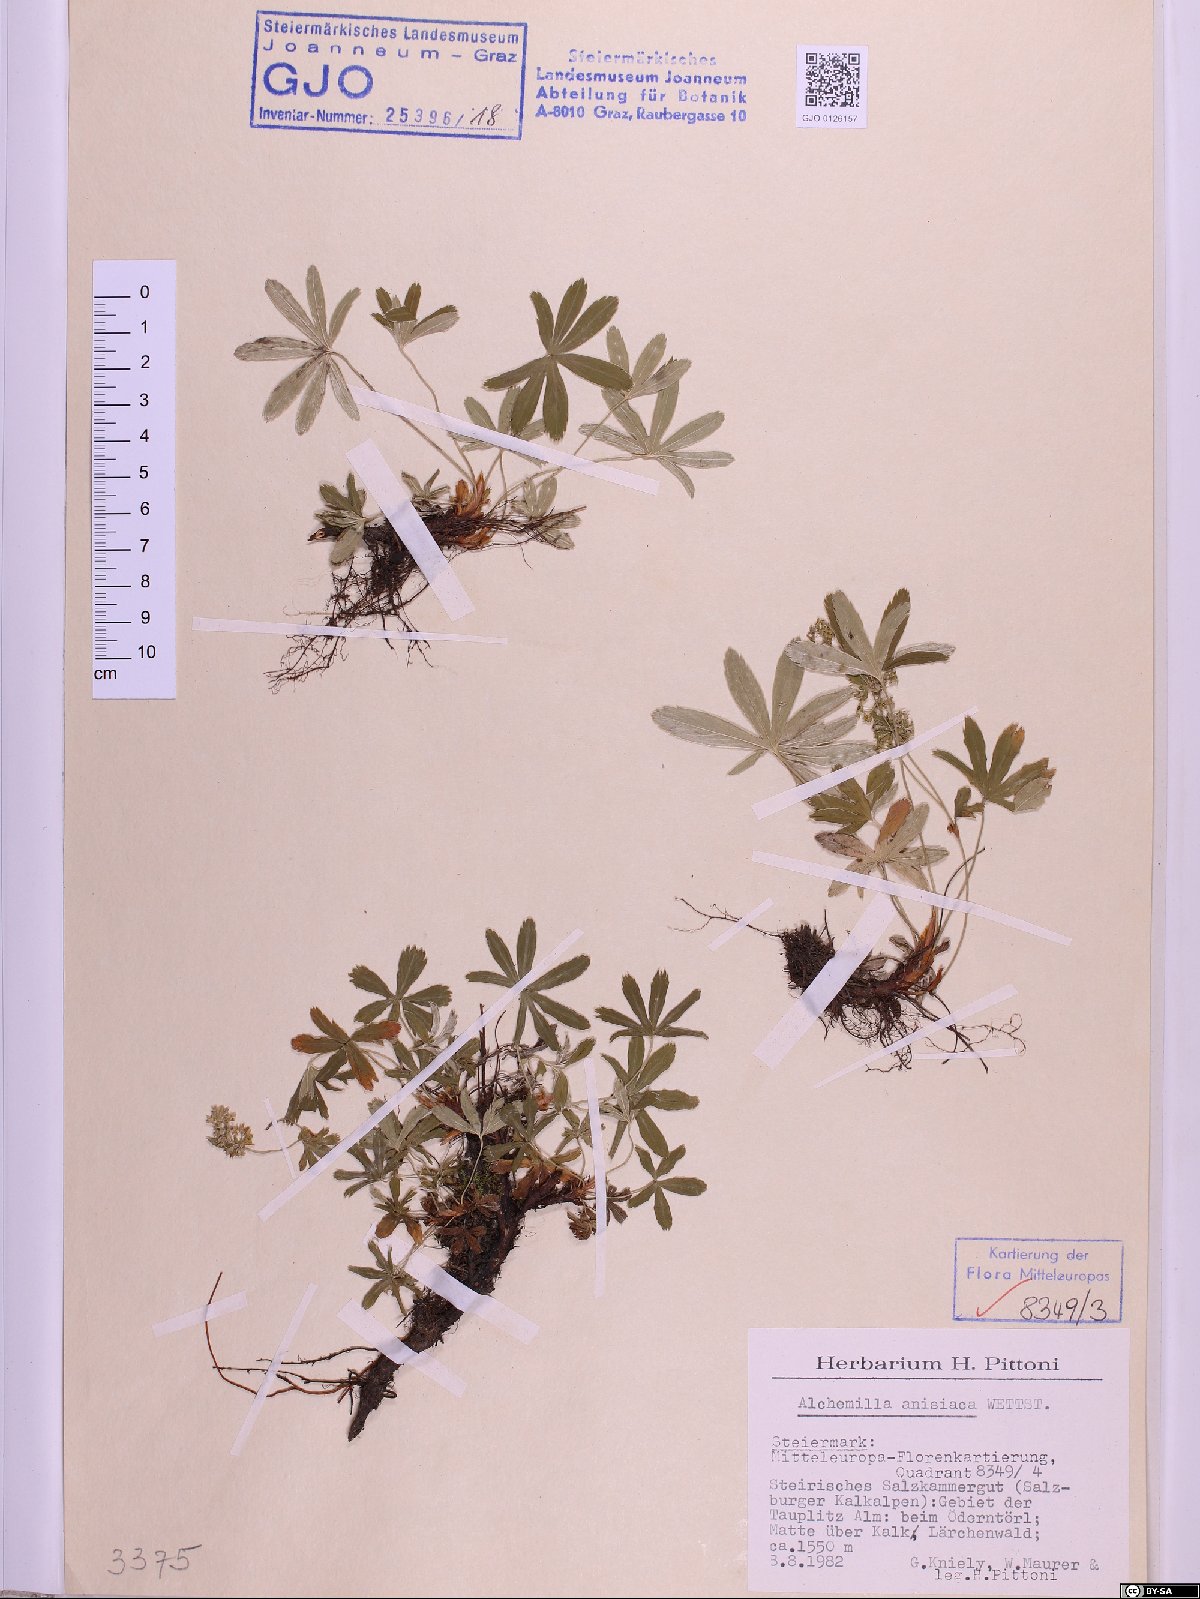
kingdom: Plantae
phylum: Tracheophyta
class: Magnoliopsida
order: Rosales
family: Rosaceae
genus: Alchemilla
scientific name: Alchemilla anisiaca
